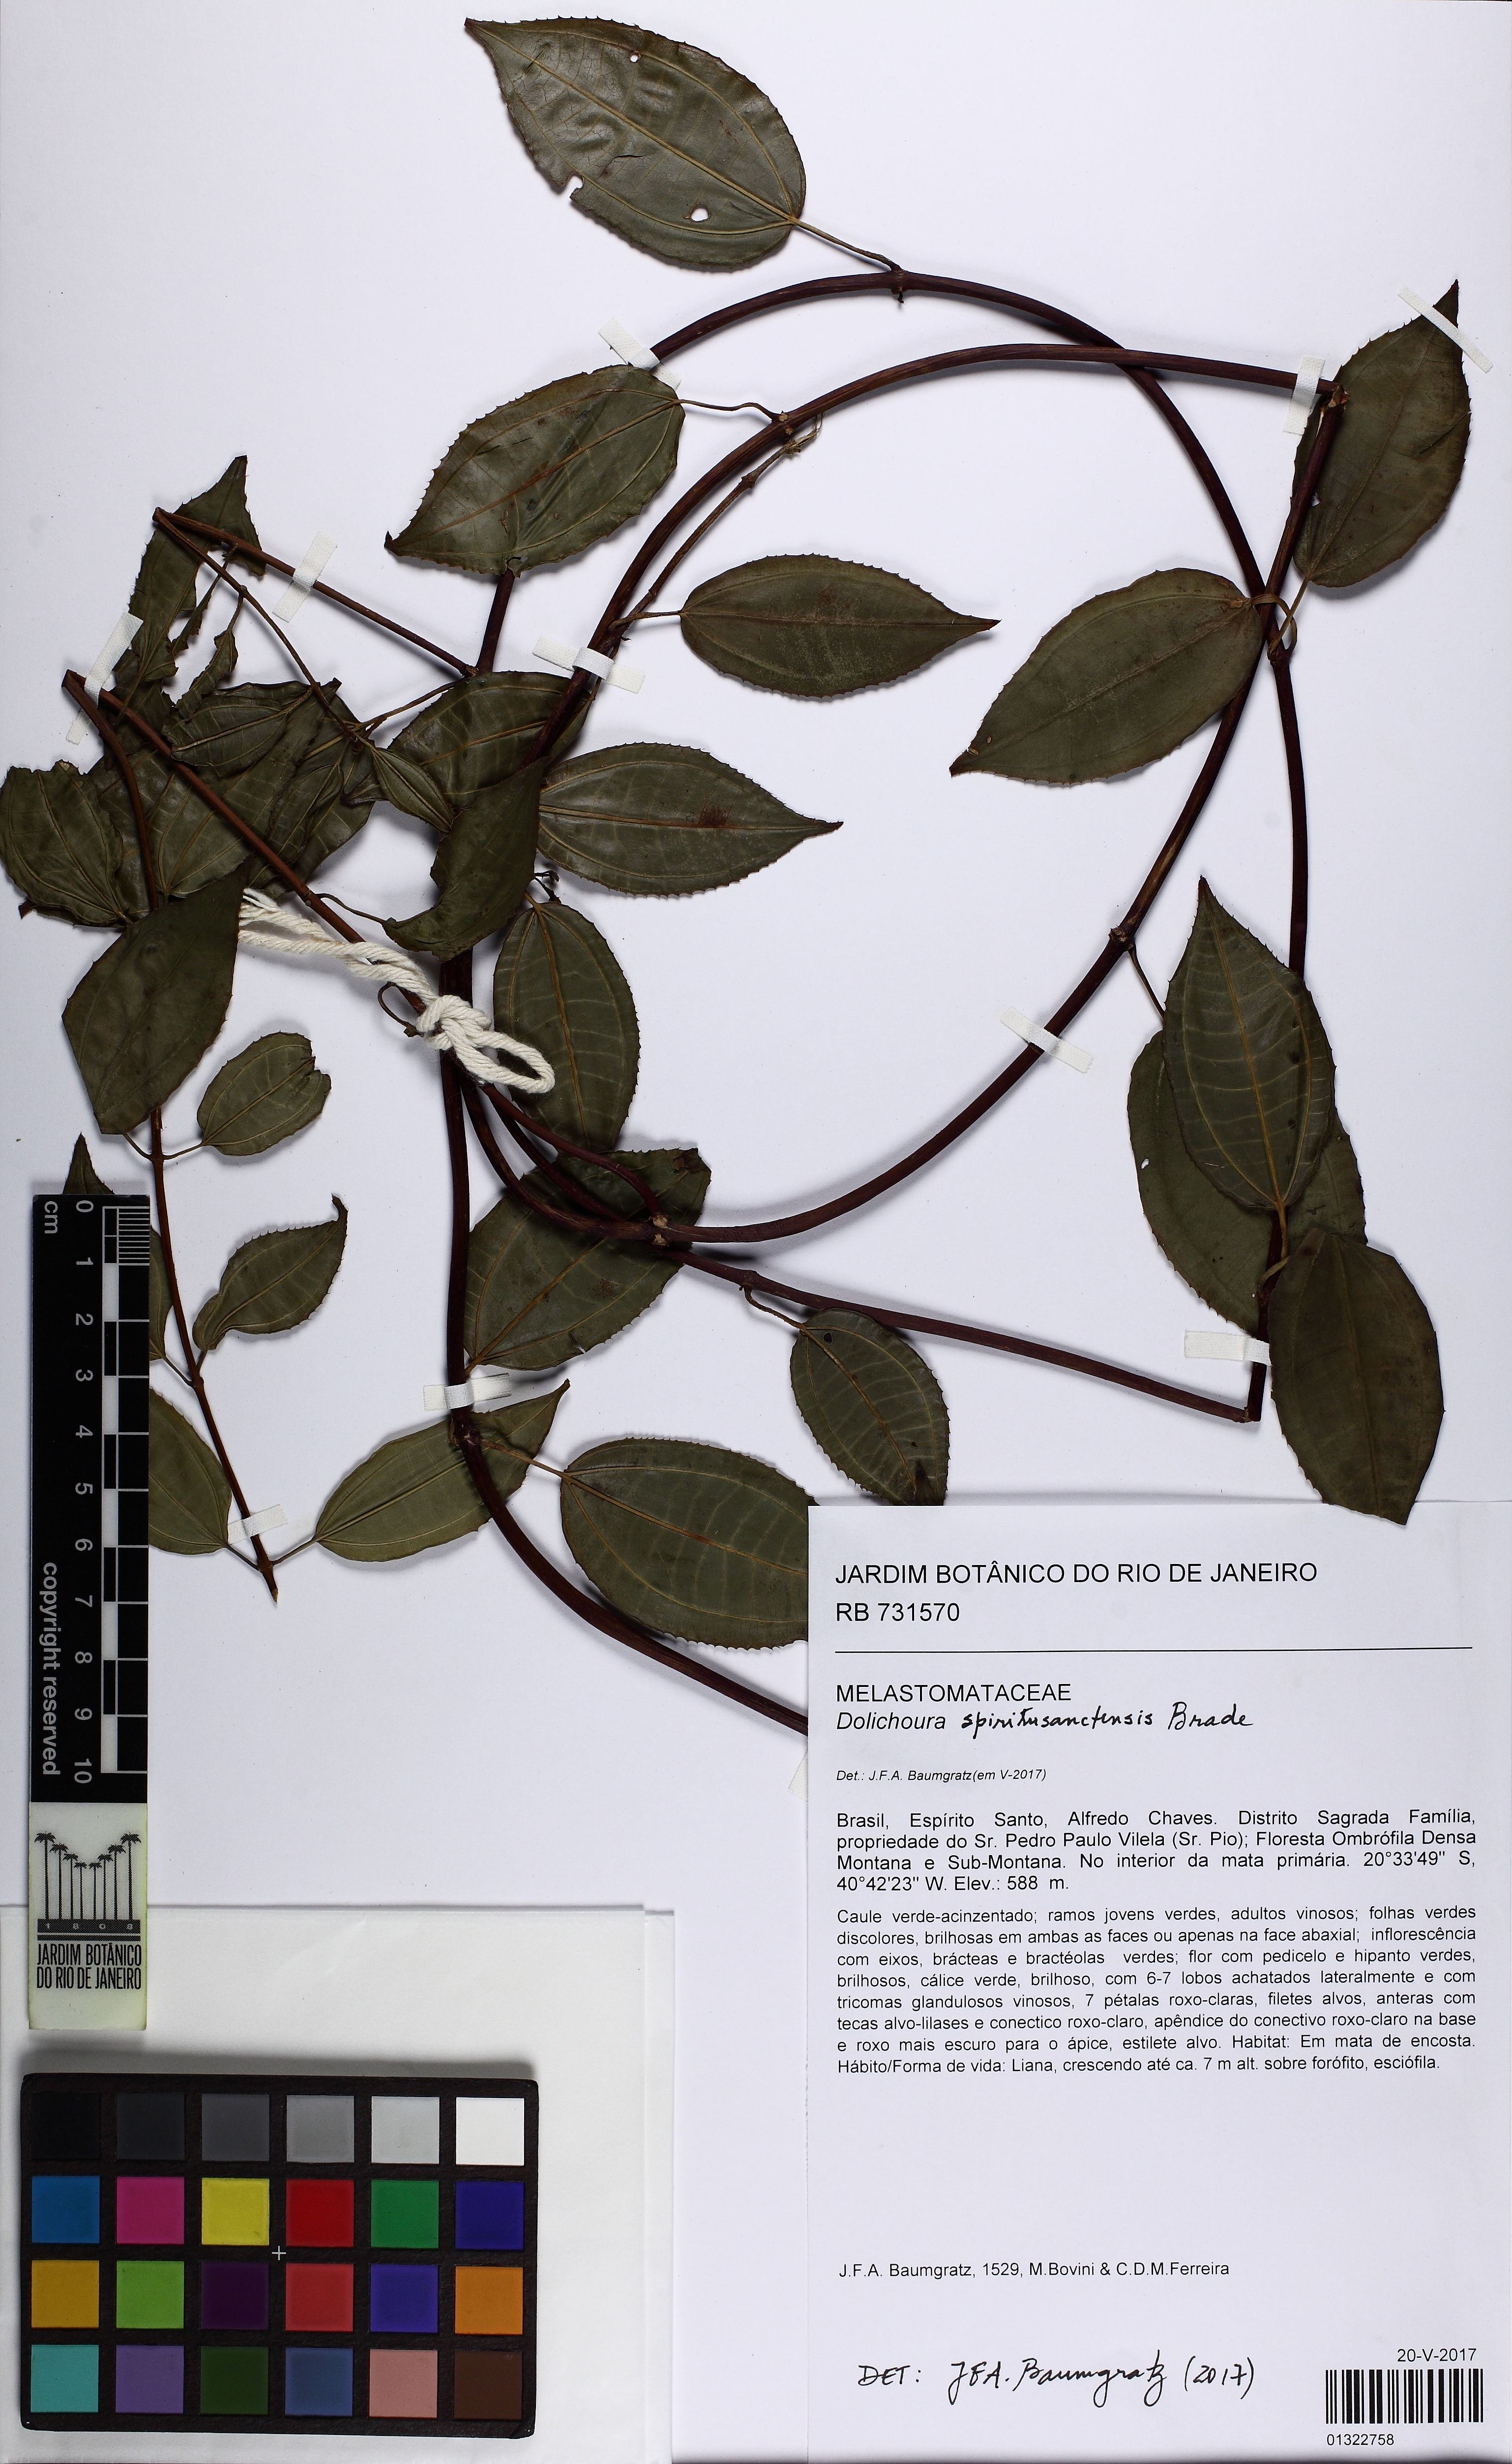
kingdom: Plantae
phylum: Tracheophyta
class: Magnoliopsida
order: Myrtales
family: Melastomataceae
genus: Huberia
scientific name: Huberia bradeana
